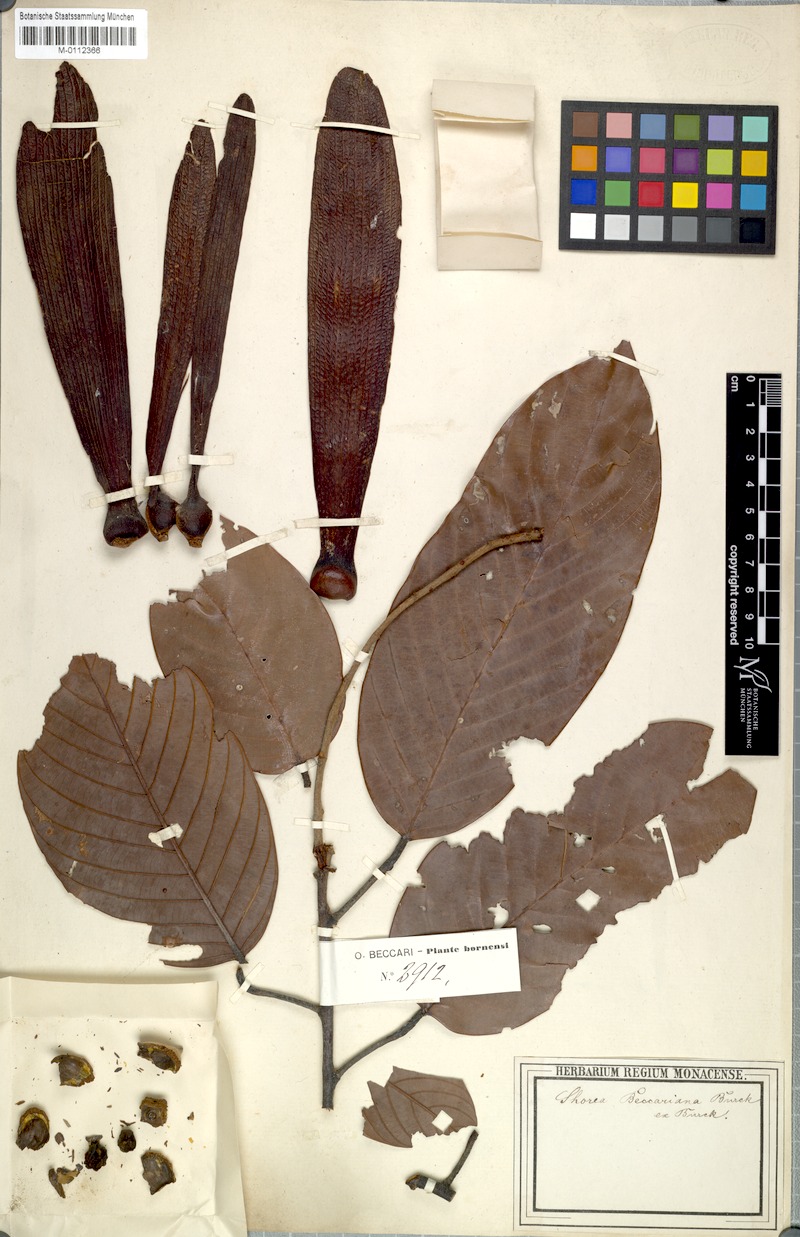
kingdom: Plantae
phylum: Tracheophyta
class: Magnoliopsida
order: Malvales
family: Dipterocarpaceae
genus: Shorea
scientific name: Shorea beccariana
